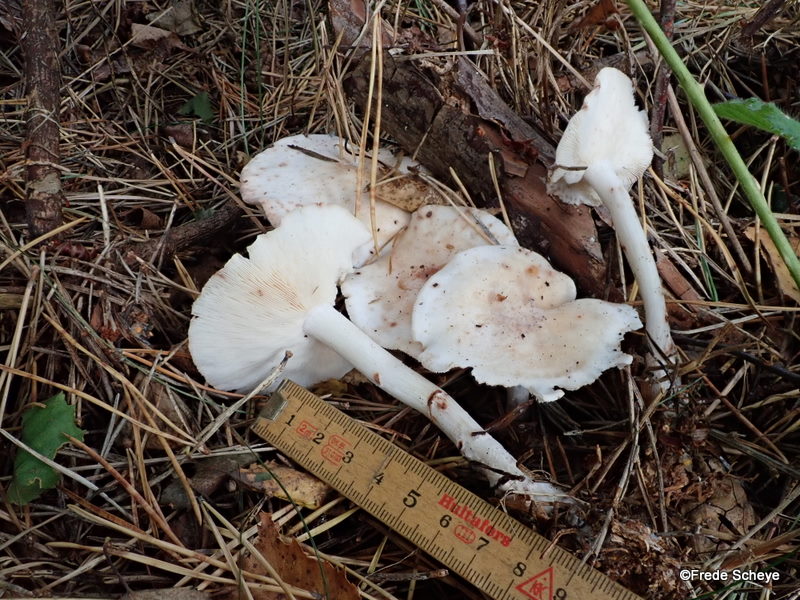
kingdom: Fungi
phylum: Basidiomycota
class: Agaricomycetes
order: Agaricales
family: Omphalotaceae
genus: Rhodocollybia
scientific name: Rhodocollybia maculata
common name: plettet fladhat
